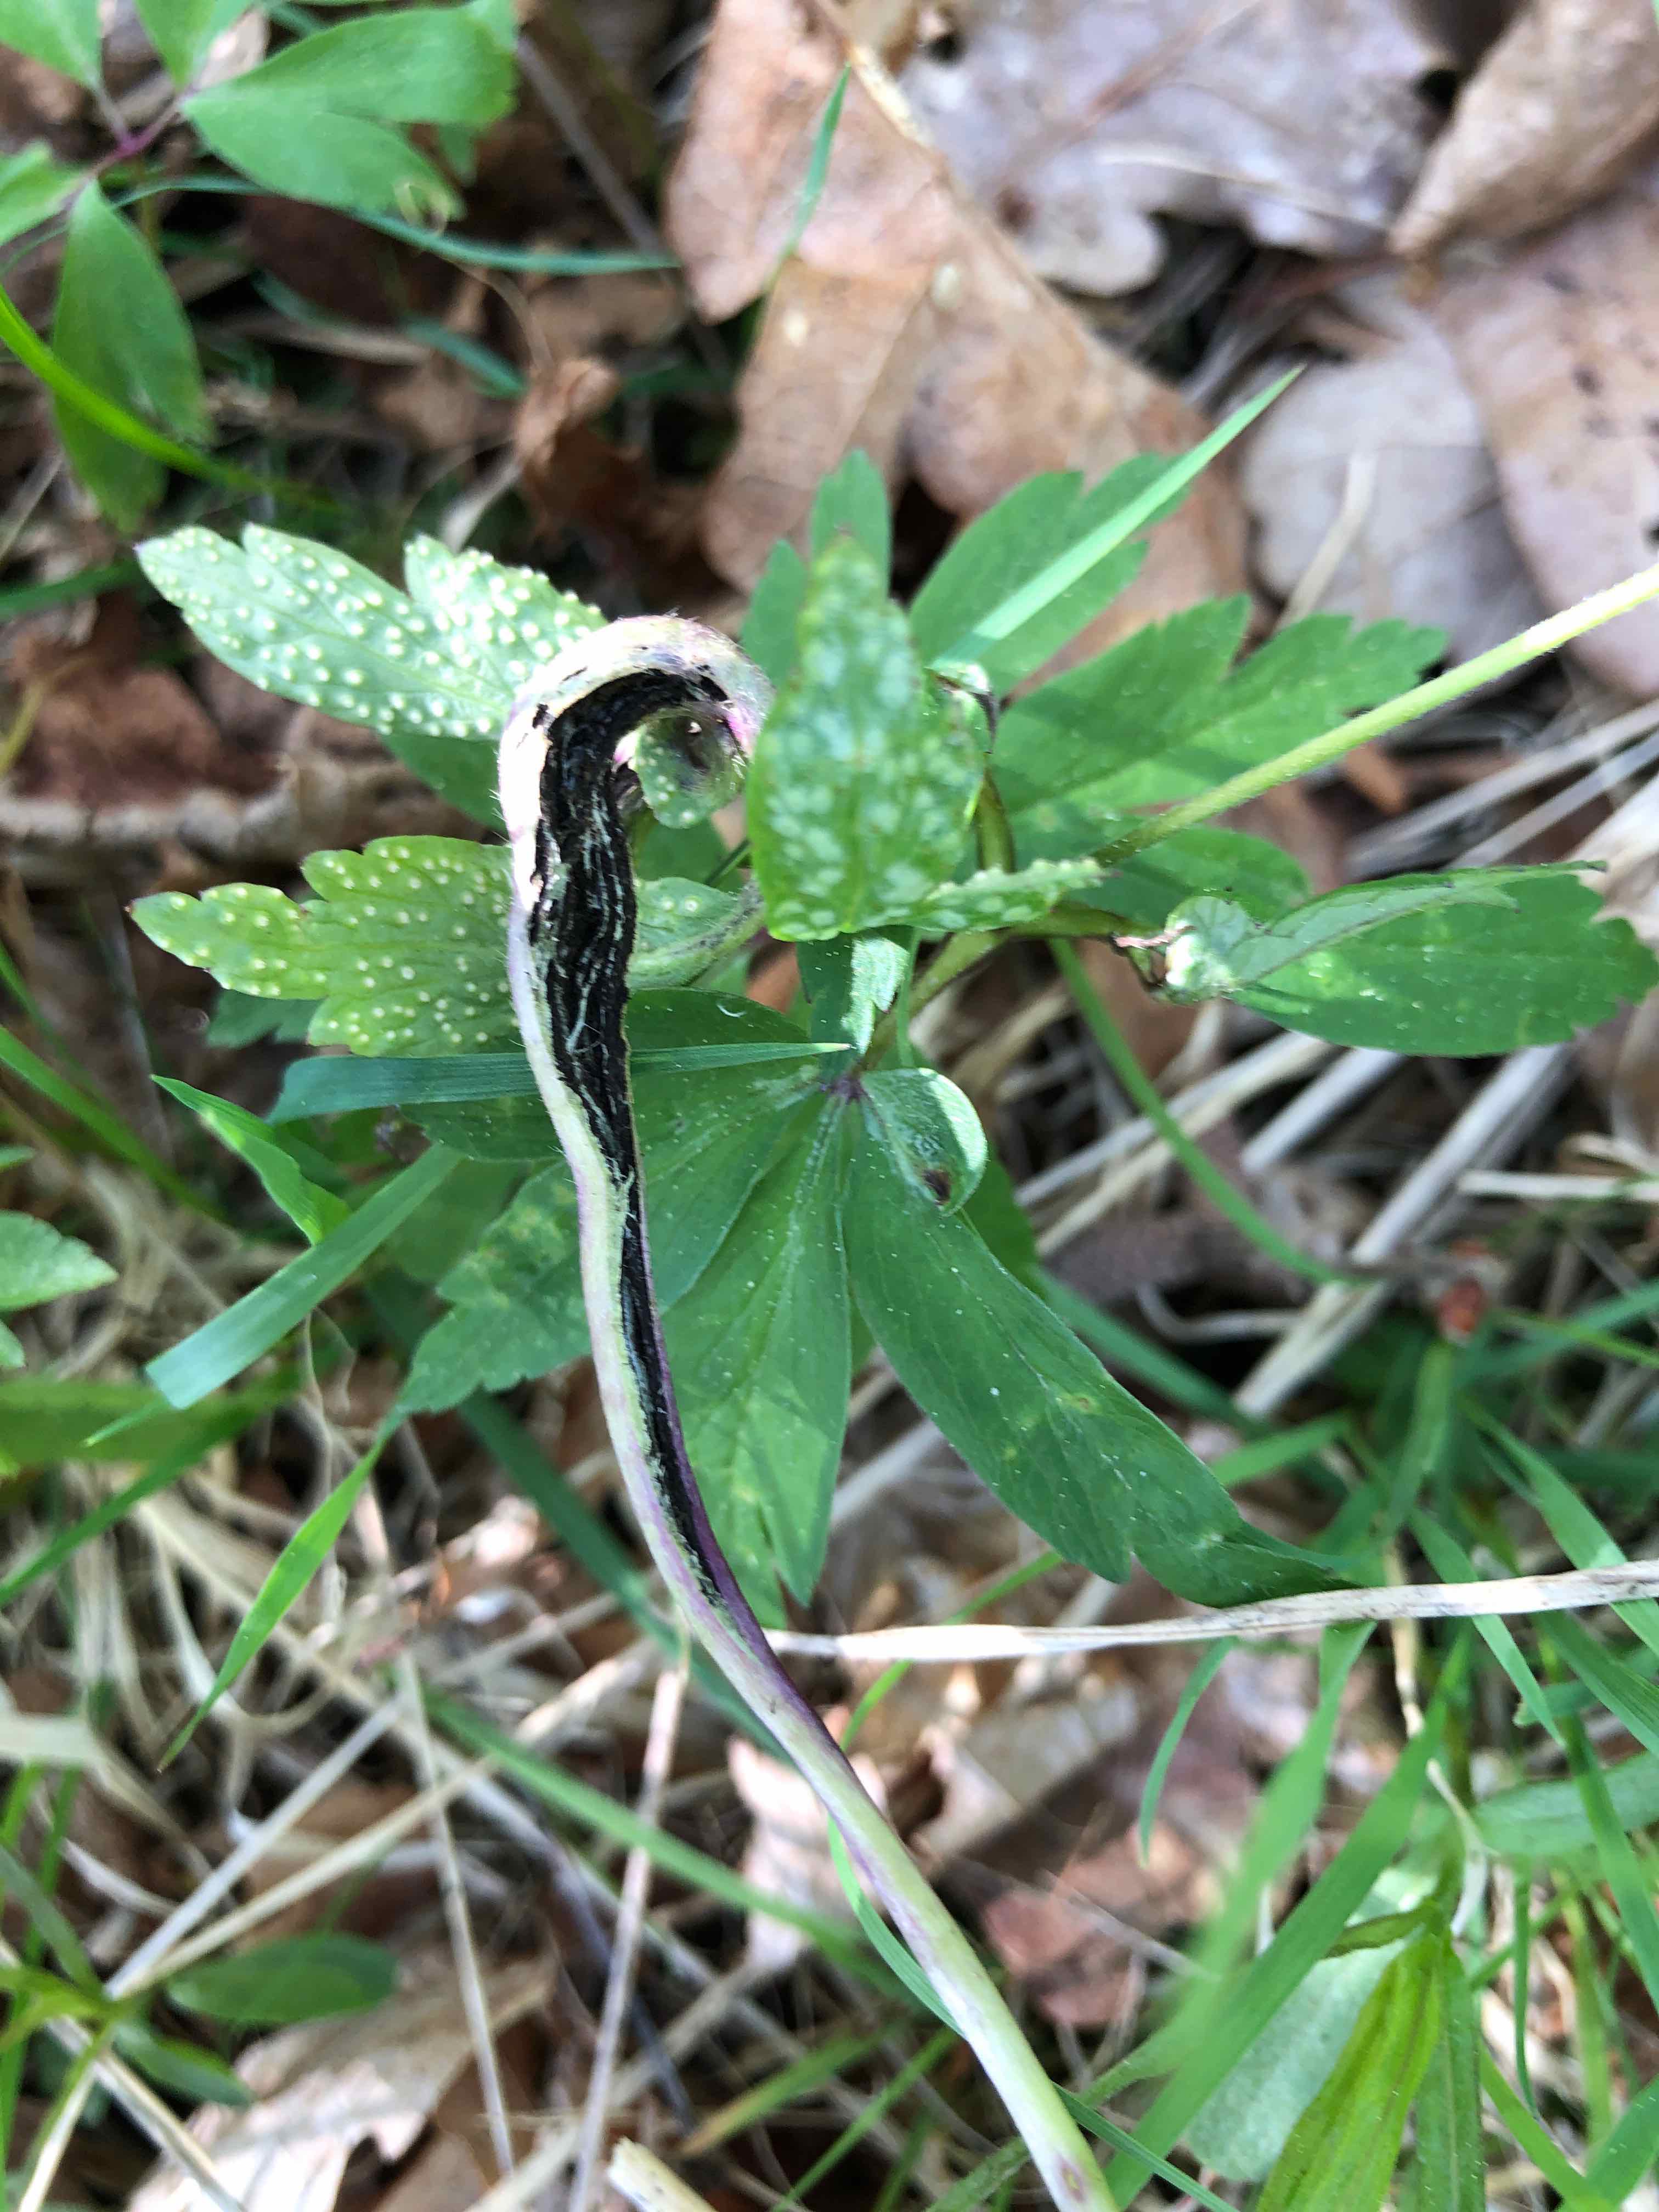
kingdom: Fungi
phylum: Basidiomycota
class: Ustilaginomycetes
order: Urocystidales
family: Urocystidaceae
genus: Urocystis
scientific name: Urocystis anemones
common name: anemone-brand
